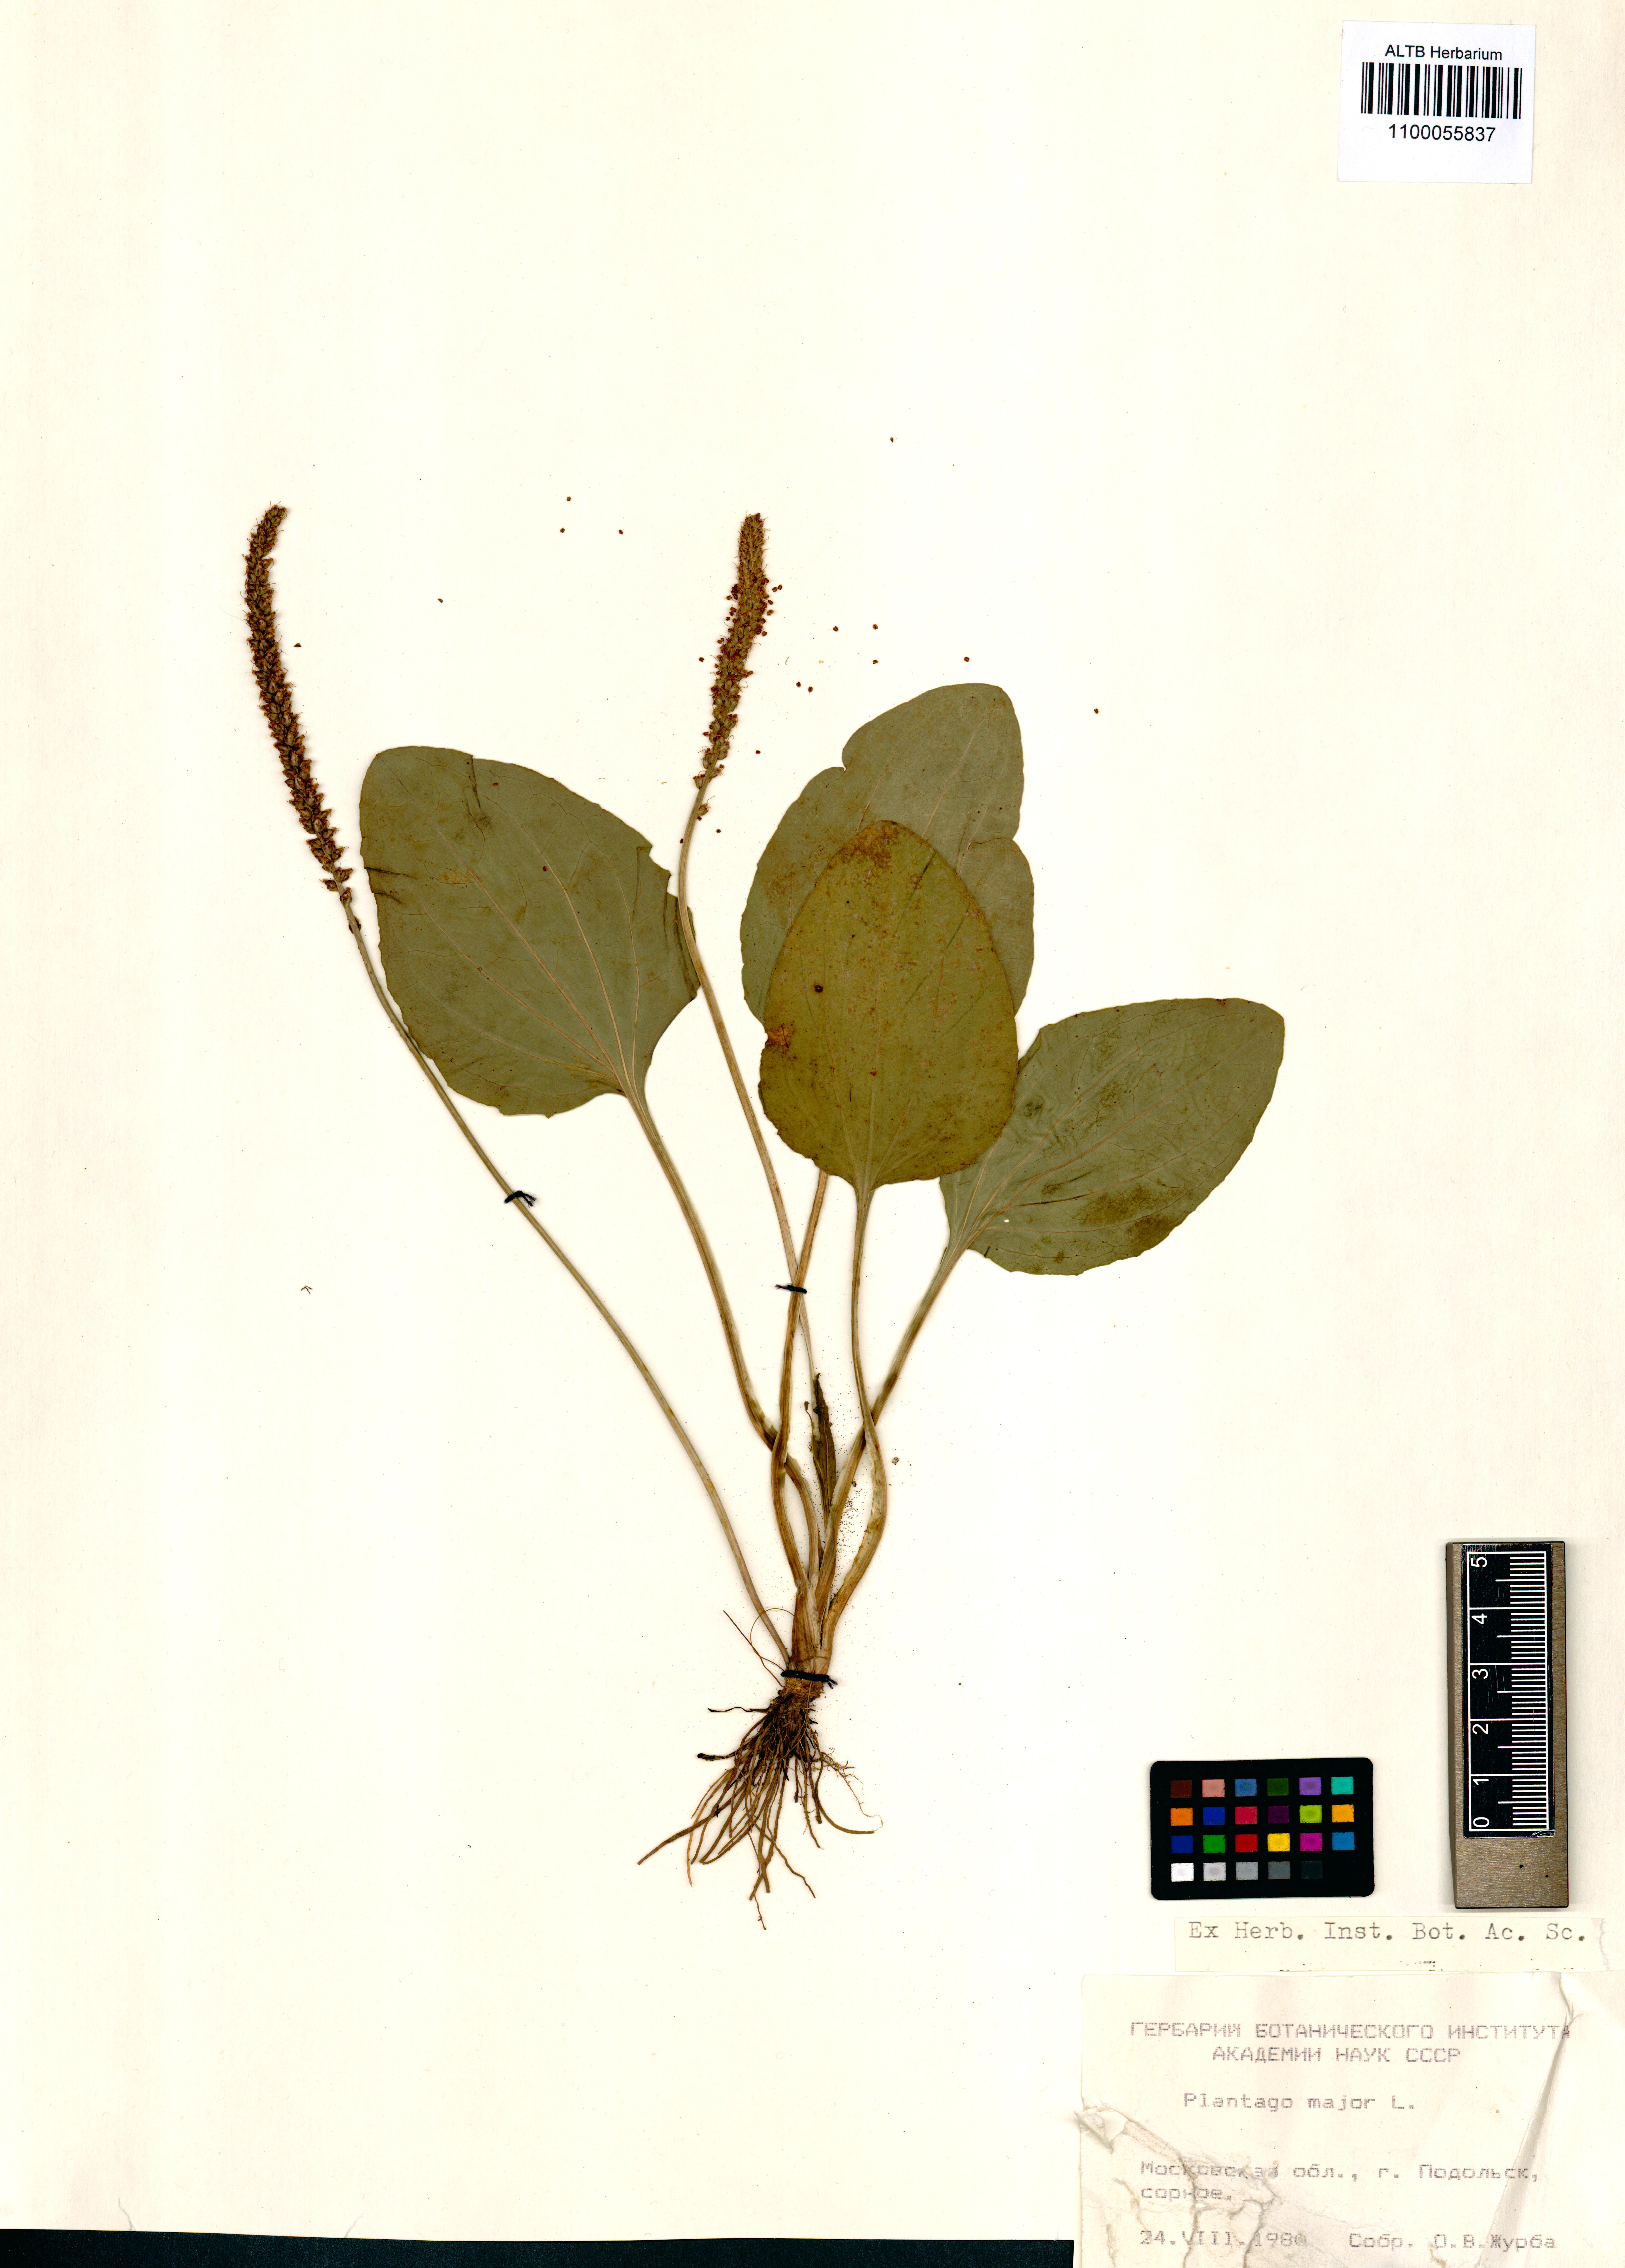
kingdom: Plantae
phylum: Tracheophyta
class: Magnoliopsida
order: Lamiales
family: Plantaginaceae
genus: Plantago
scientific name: Plantago major
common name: Common plantain
